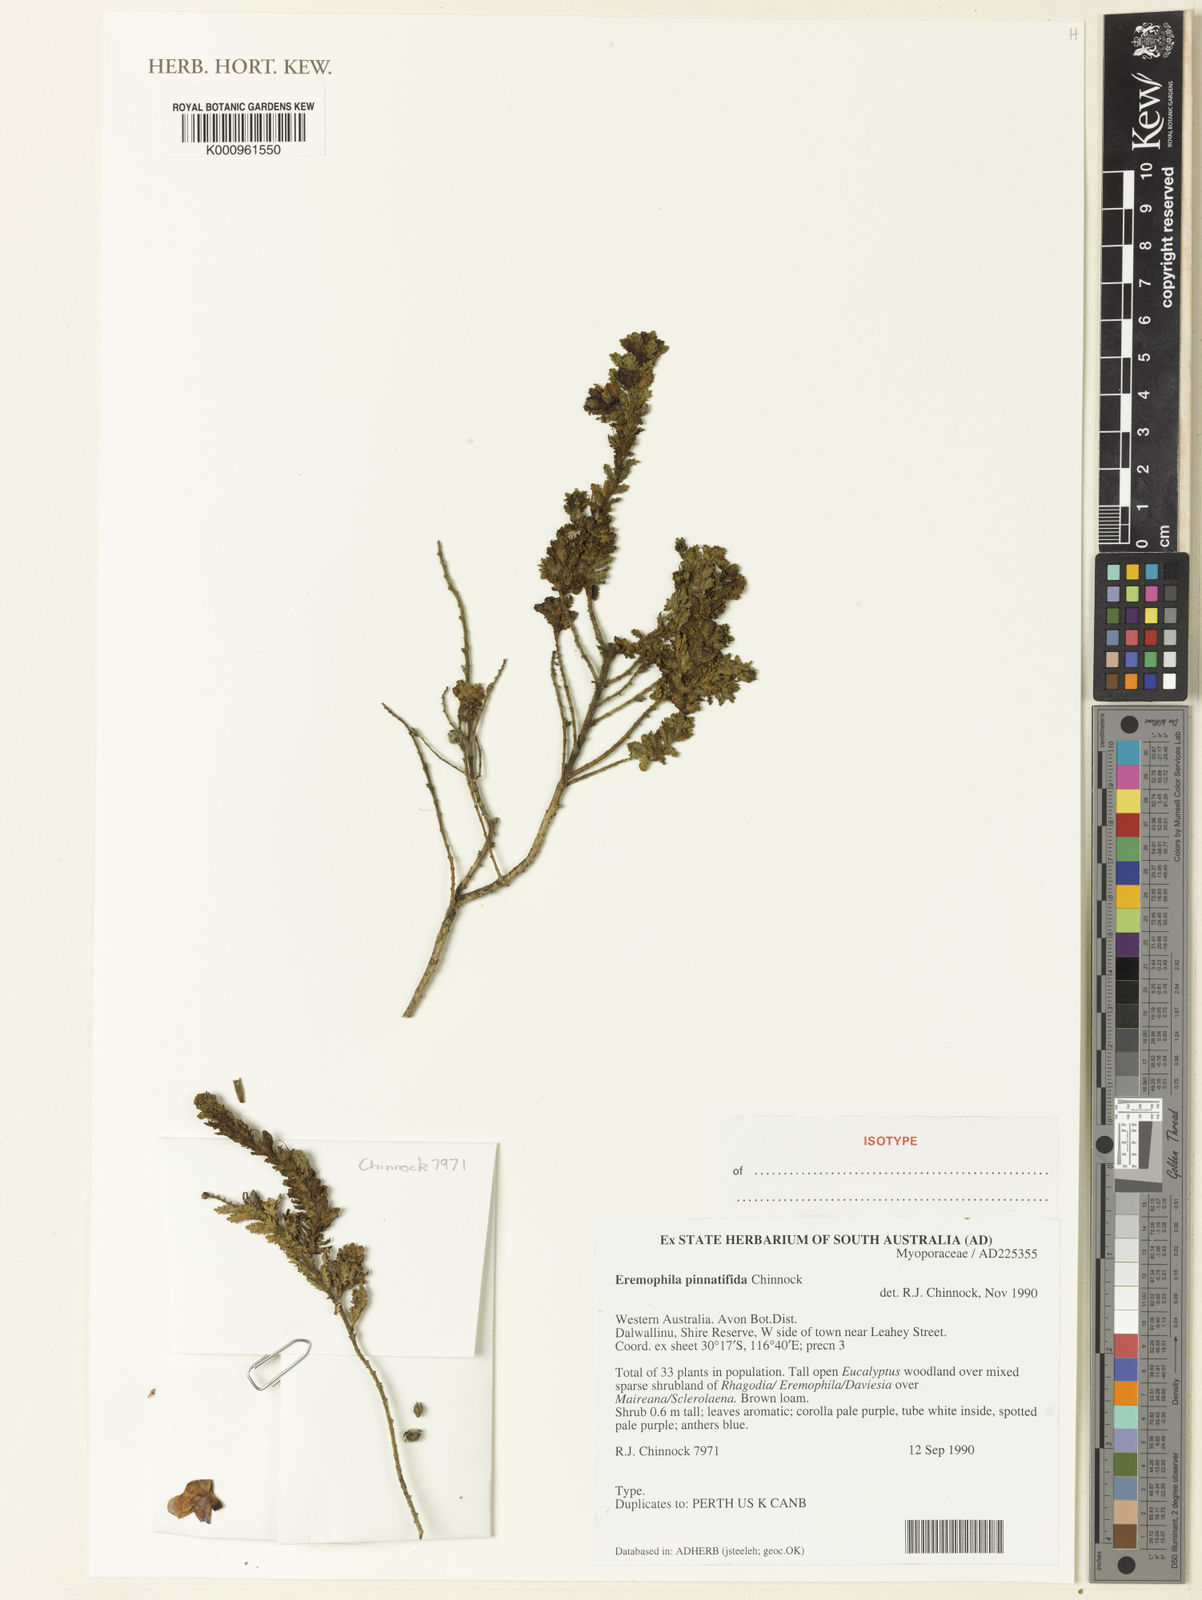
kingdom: Plantae
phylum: Tracheophyta
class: Magnoliopsida
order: Lamiales
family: Scrophulariaceae
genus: Eremophila
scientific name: Eremophila pinnatifida
